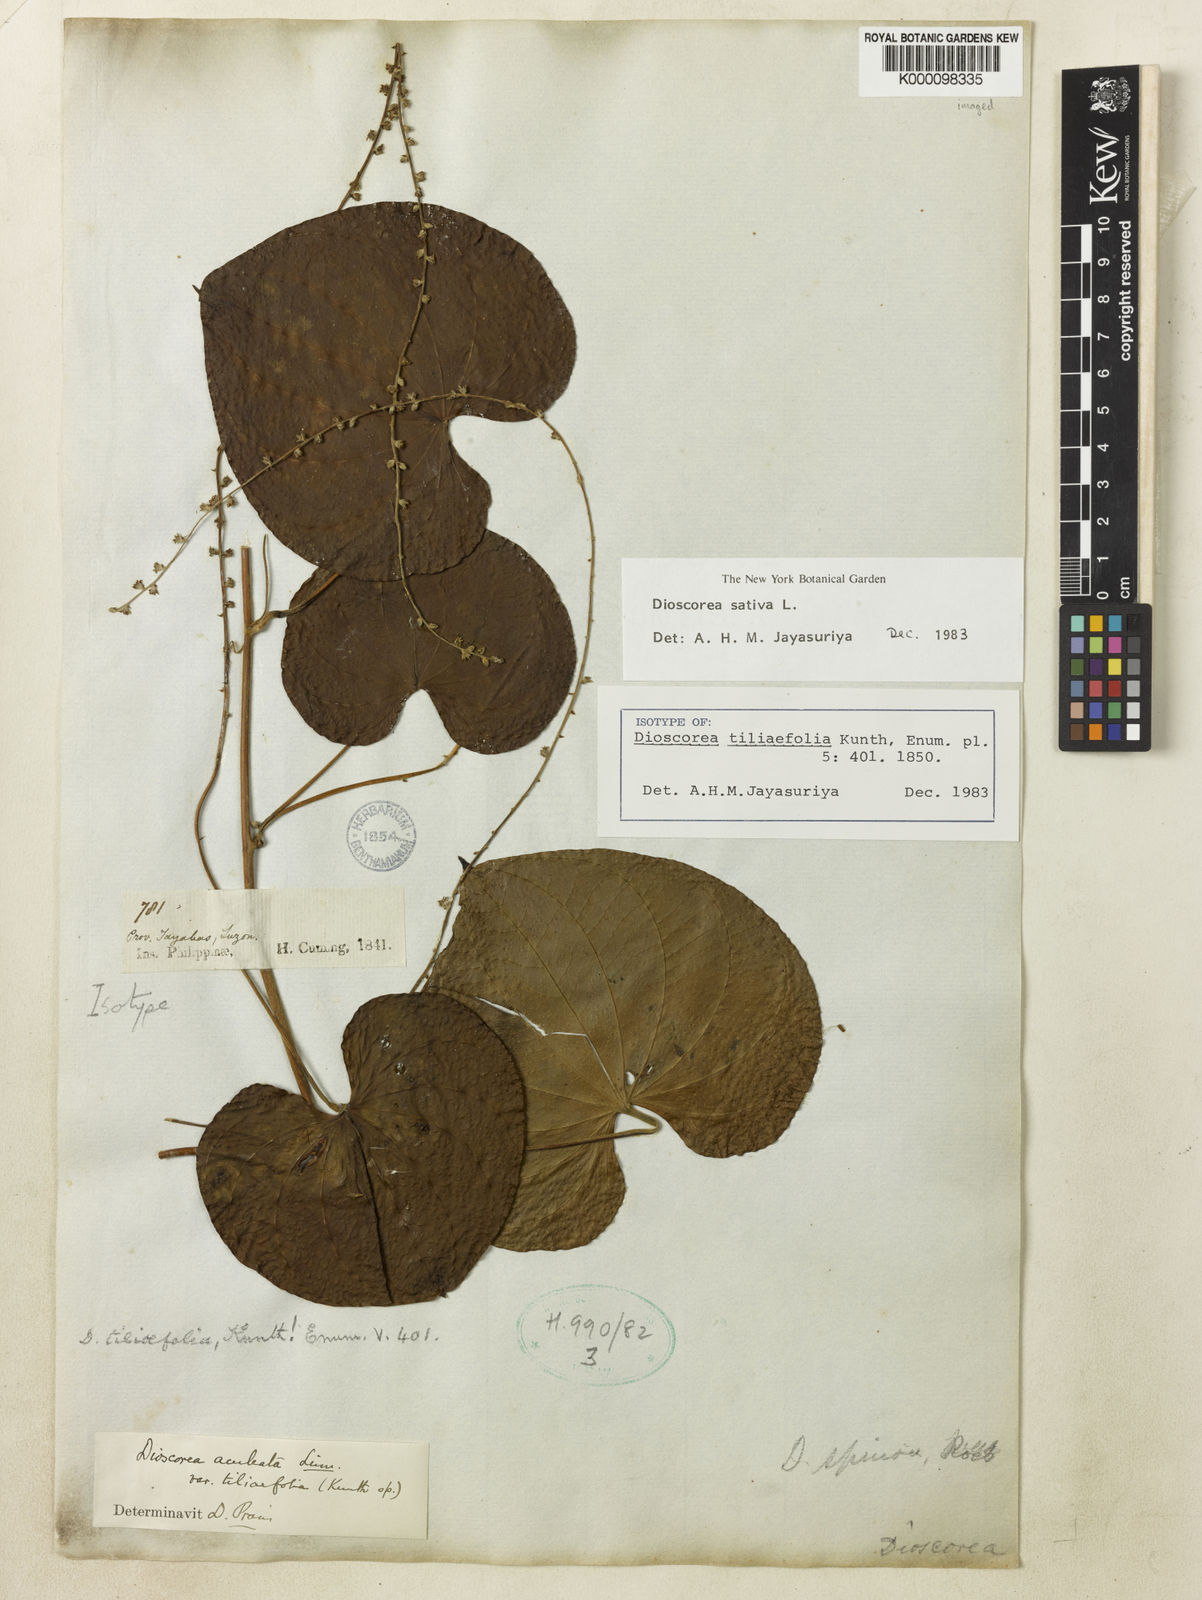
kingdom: Plantae
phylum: Tracheophyta
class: Liliopsida
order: Dioscoreales
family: Dioscoreaceae
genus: Dioscorea
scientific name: Dioscorea esculenta
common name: Chinese yam
